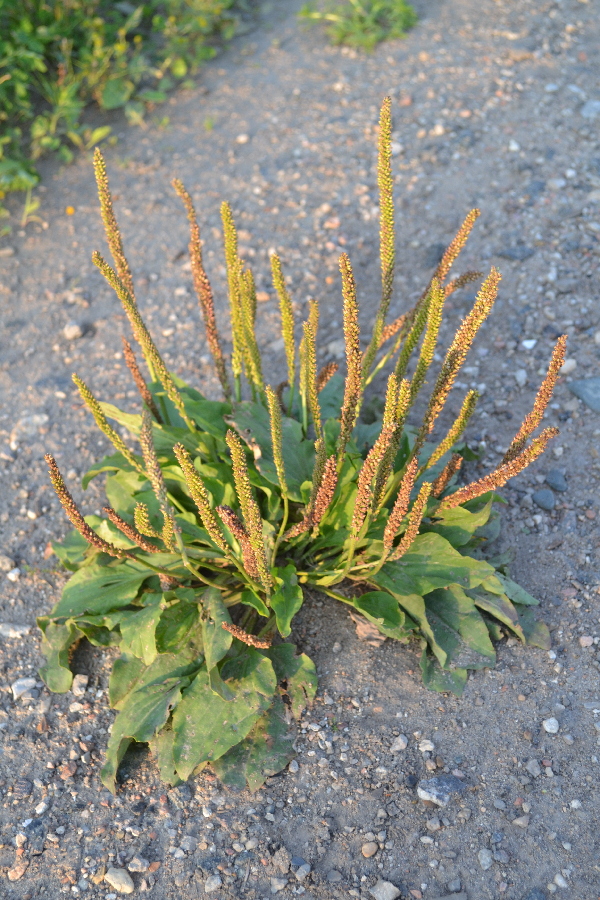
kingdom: Plantae
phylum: Tracheophyta
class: Magnoliopsida
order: Lamiales
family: Plantaginaceae
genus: Plantago
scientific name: Plantago major
